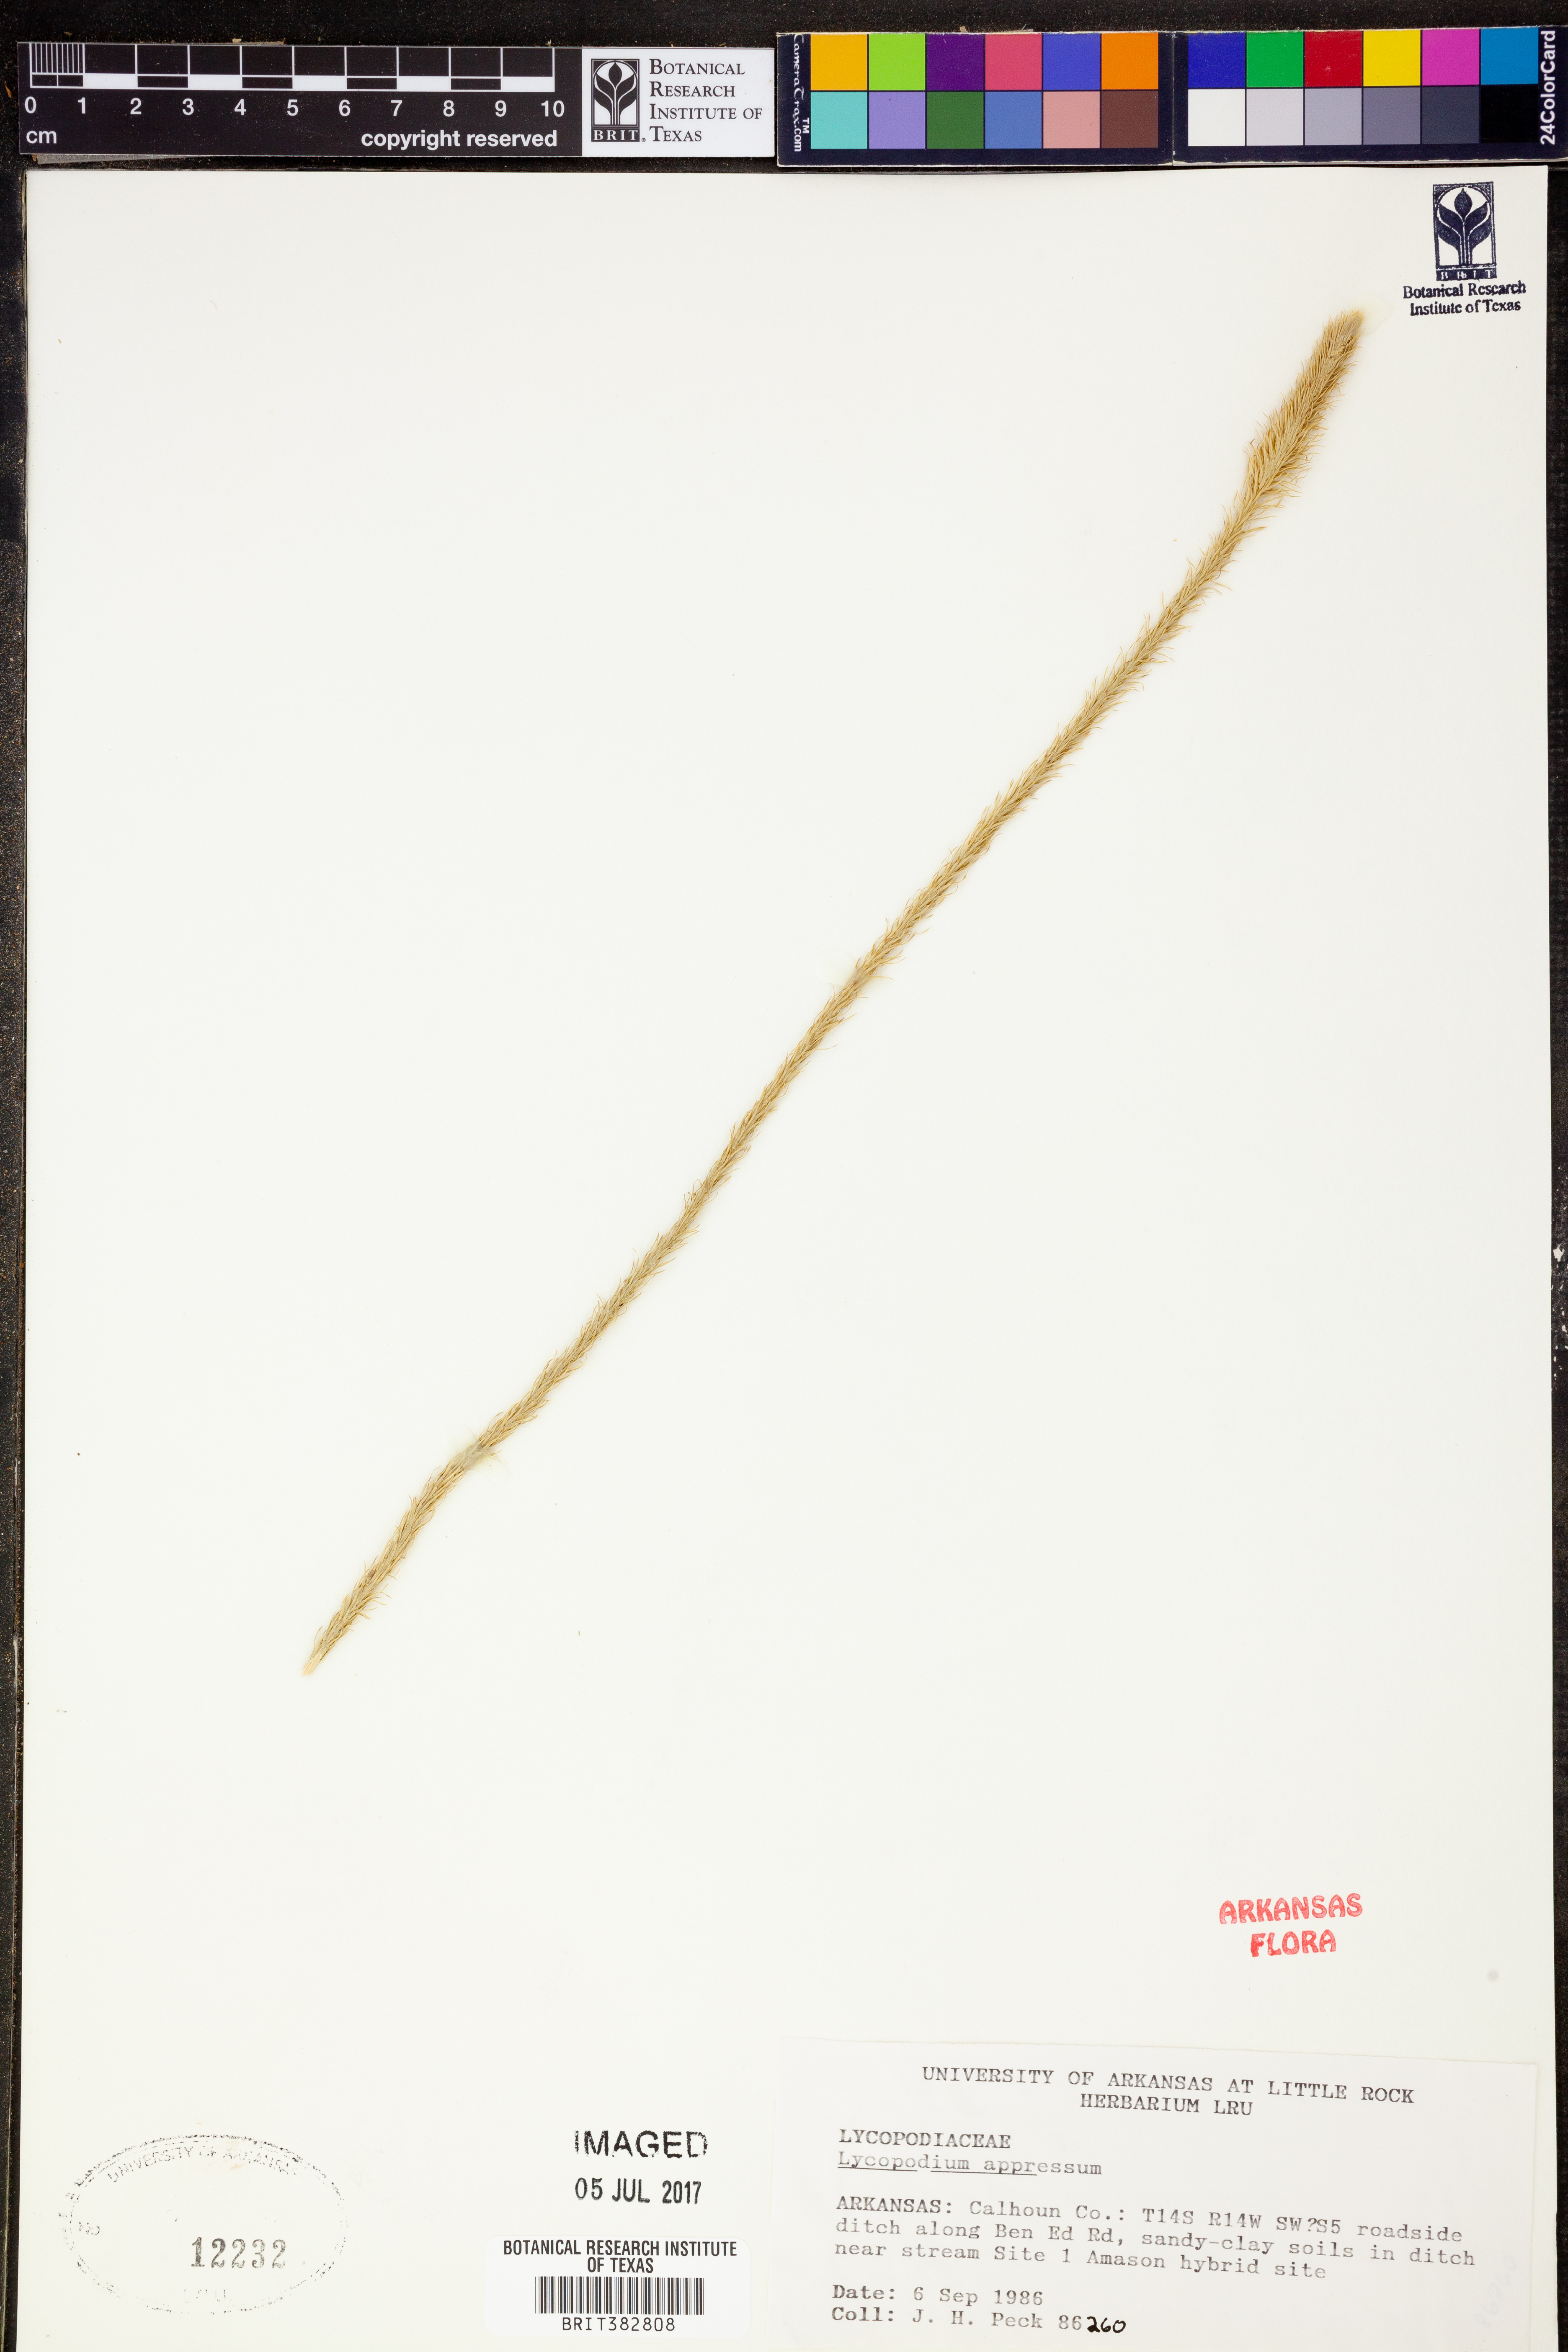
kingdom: Plantae
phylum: Tracheophyta
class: Lycopodiopsida
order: Lycopodiales
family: Lycopodiaceae
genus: Lycopodiella
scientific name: Lycopodiella appressa
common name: Appressed bog clubmoss
